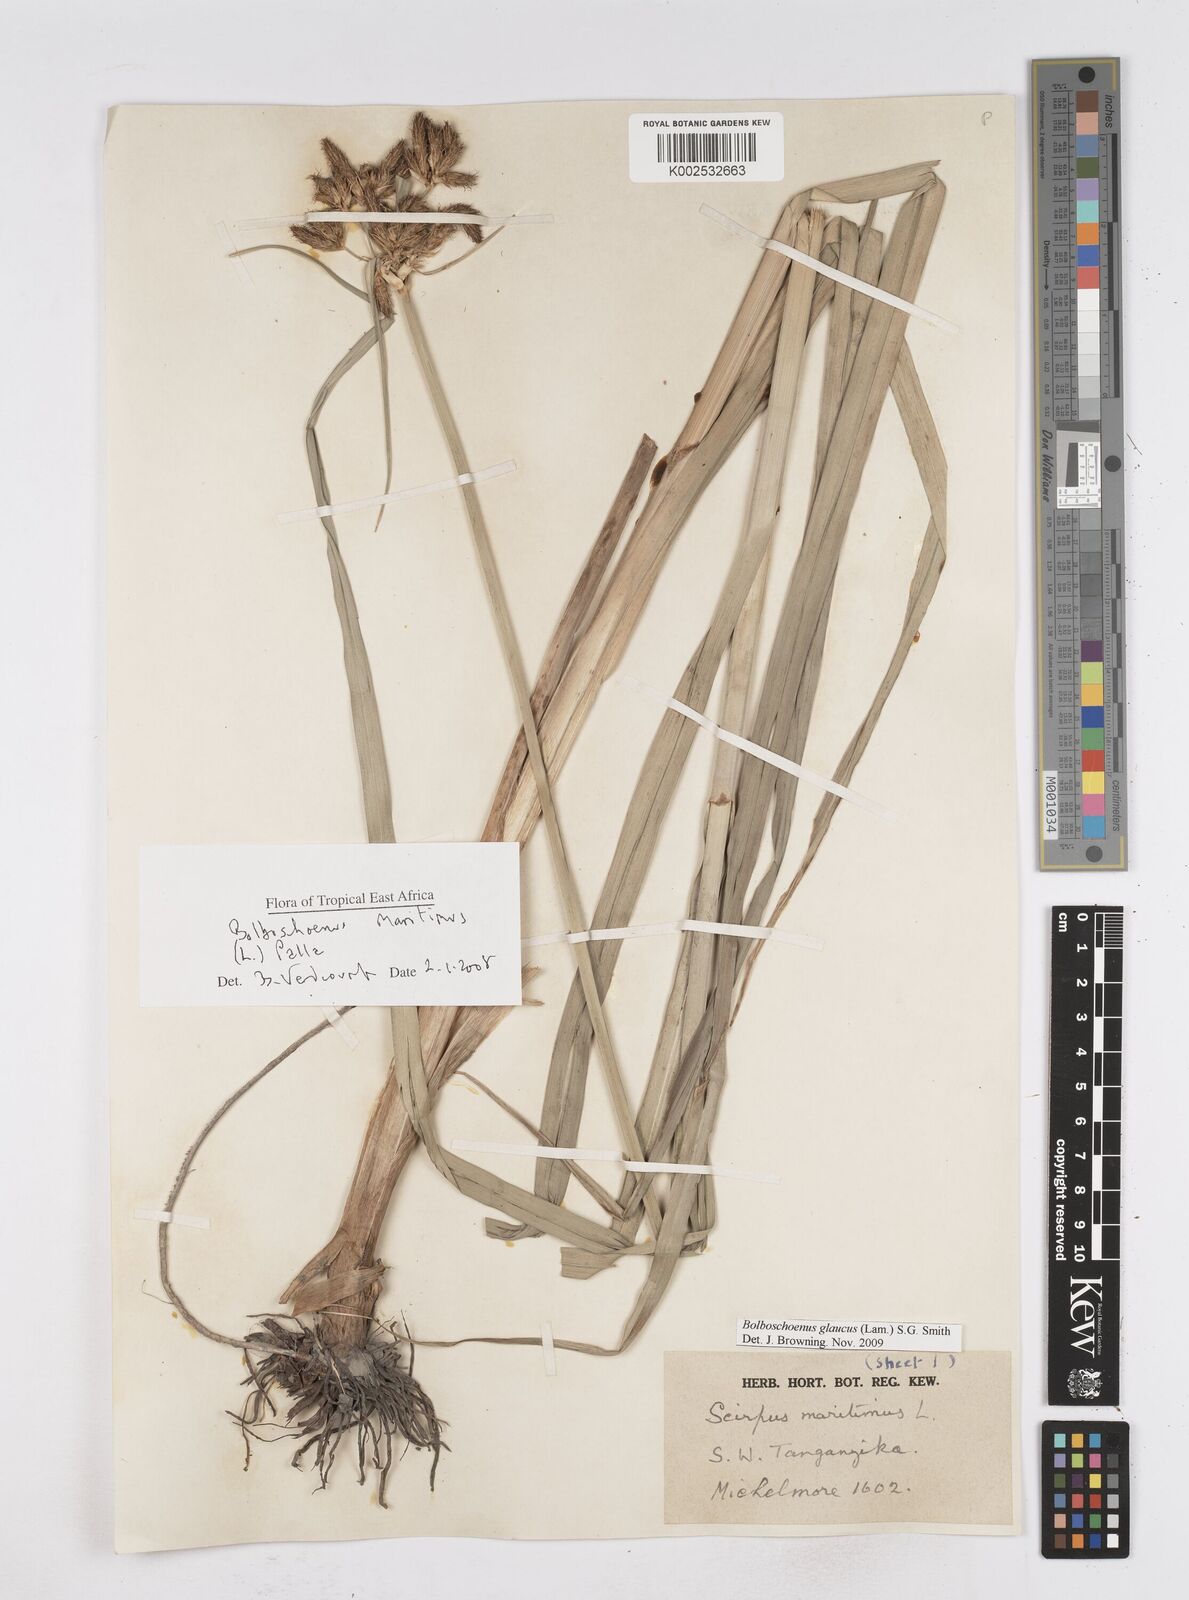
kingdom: Plantae
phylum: Tracheophyta
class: Liliopsida
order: Poales
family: Cyperaceae
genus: Bolboschoenus
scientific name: Bolboschoenus glaucus
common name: Tuberous bulrush
